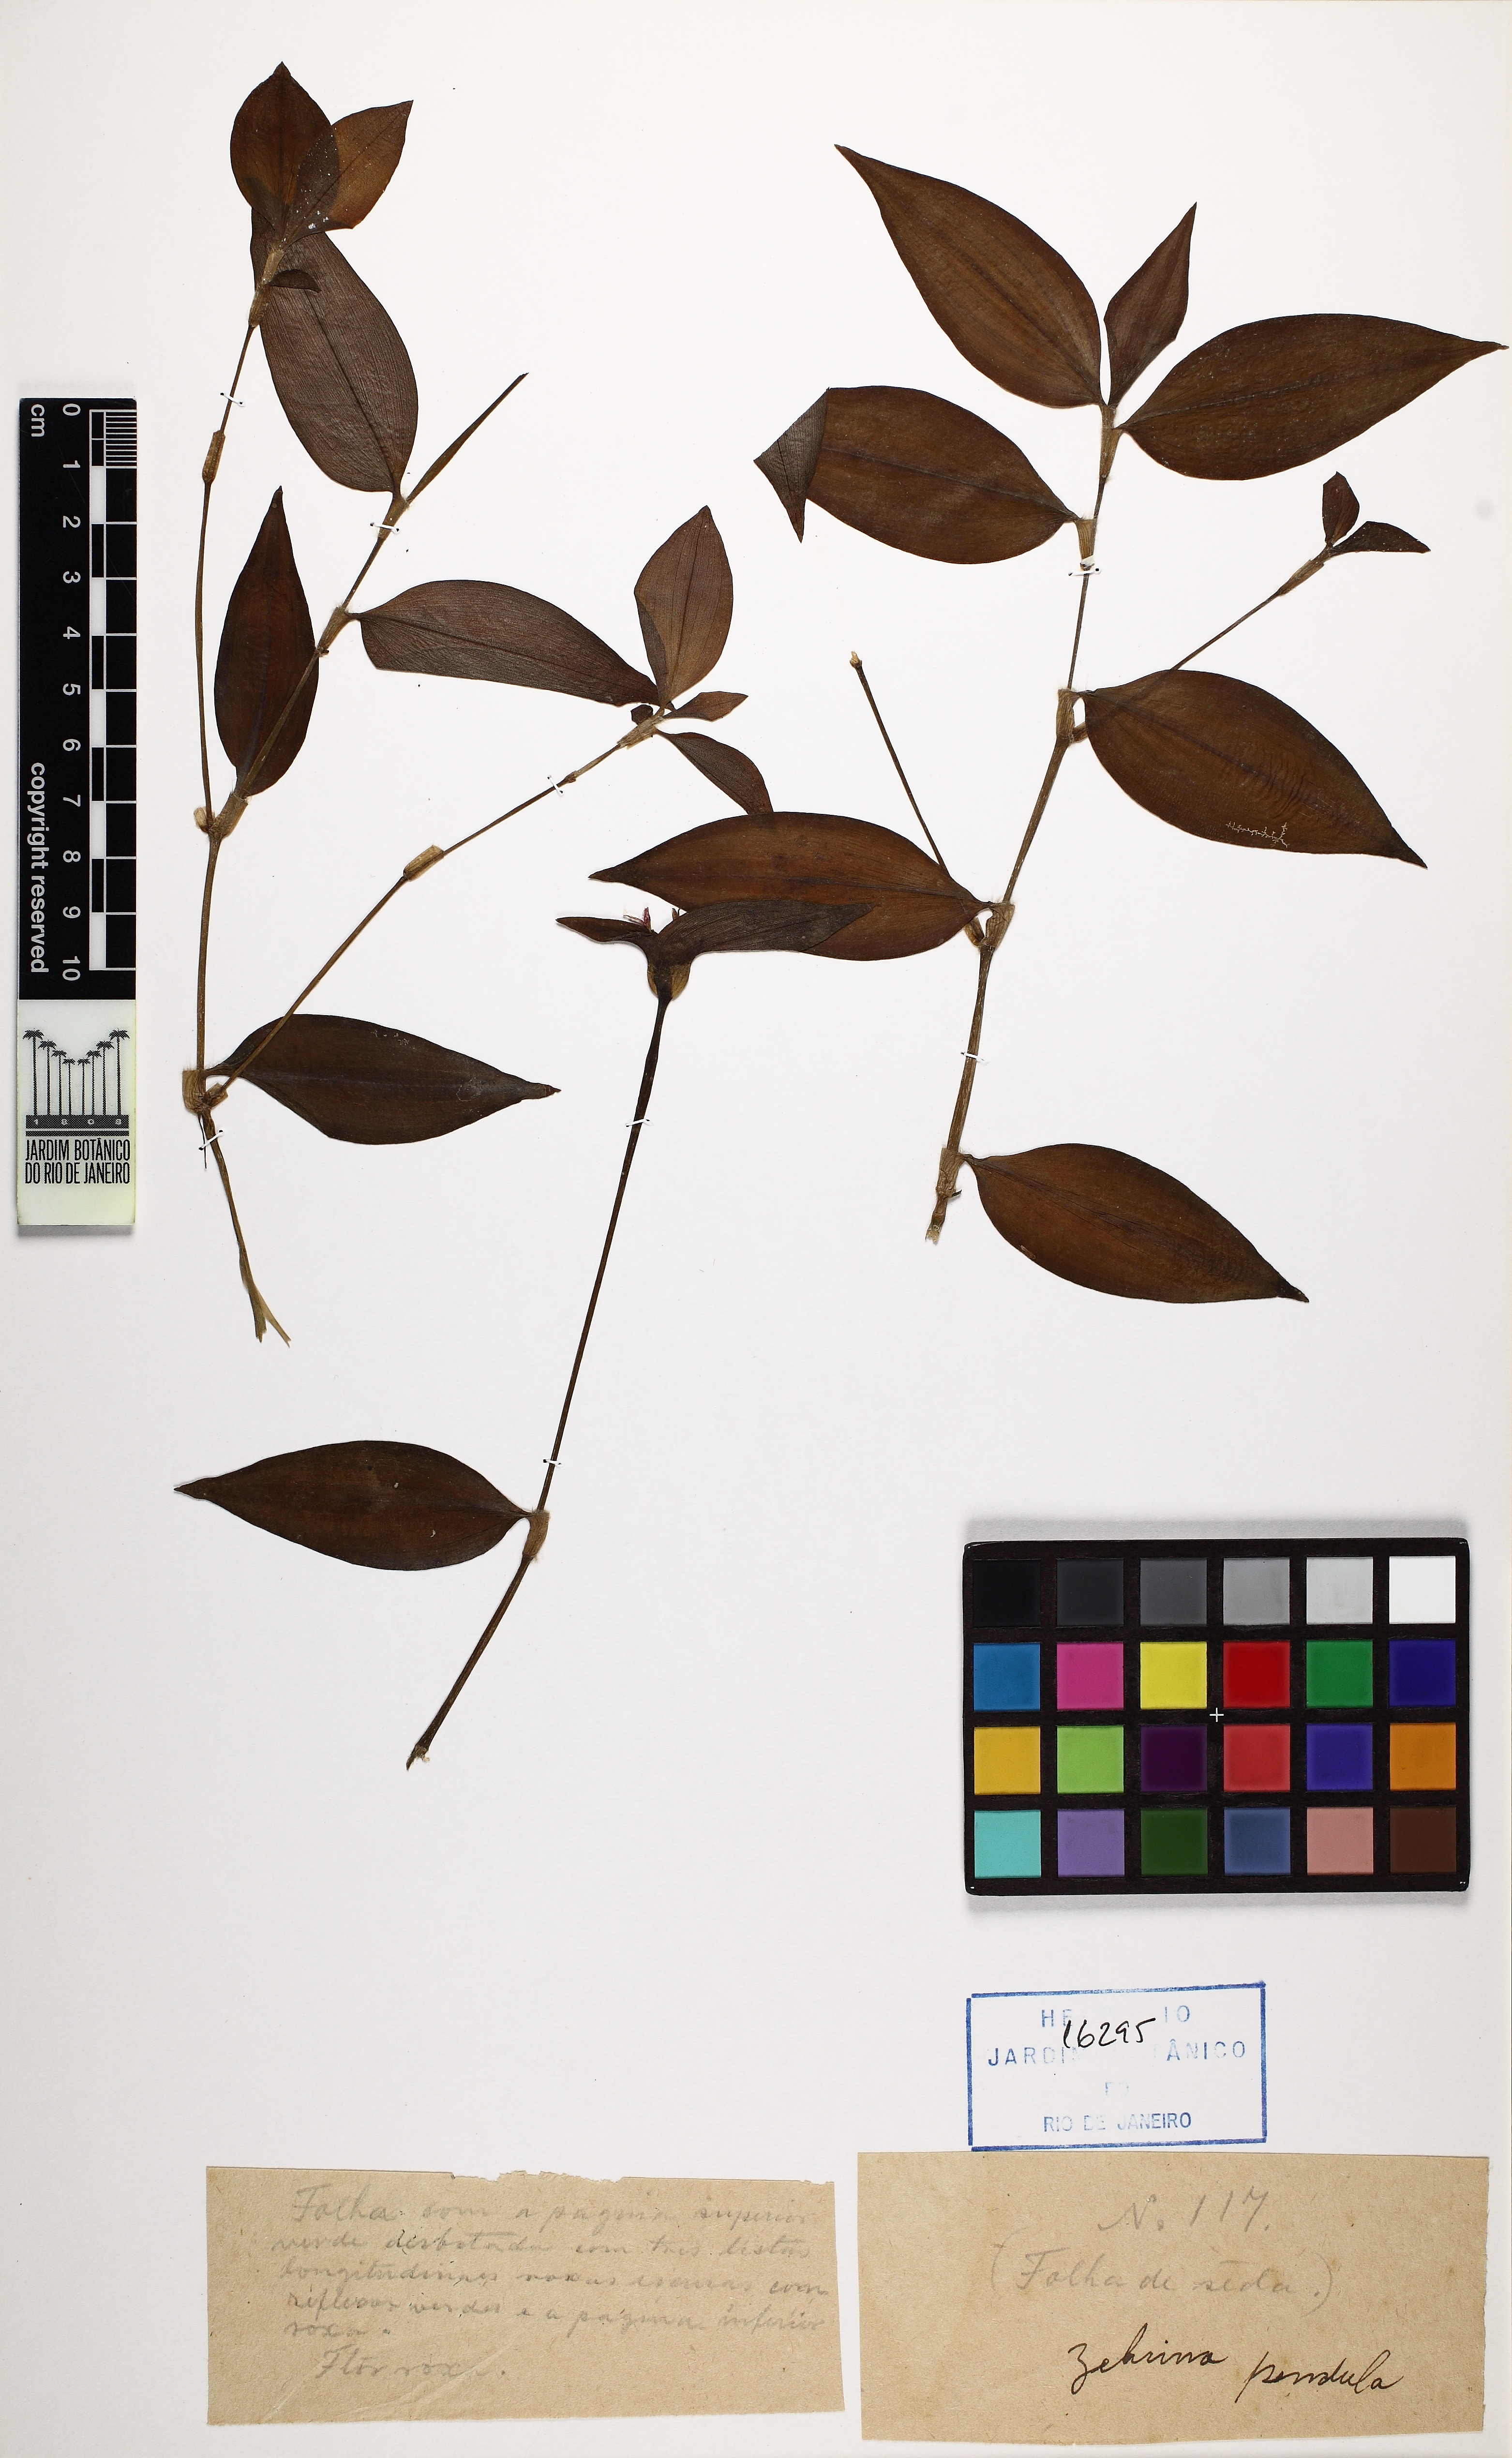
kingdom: Plantae
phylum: Tracheophyta
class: Liliopsida
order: Commelinales
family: Commelinaceae
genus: Tradescantia
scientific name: Tradescantia zebrina
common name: Inchplant
